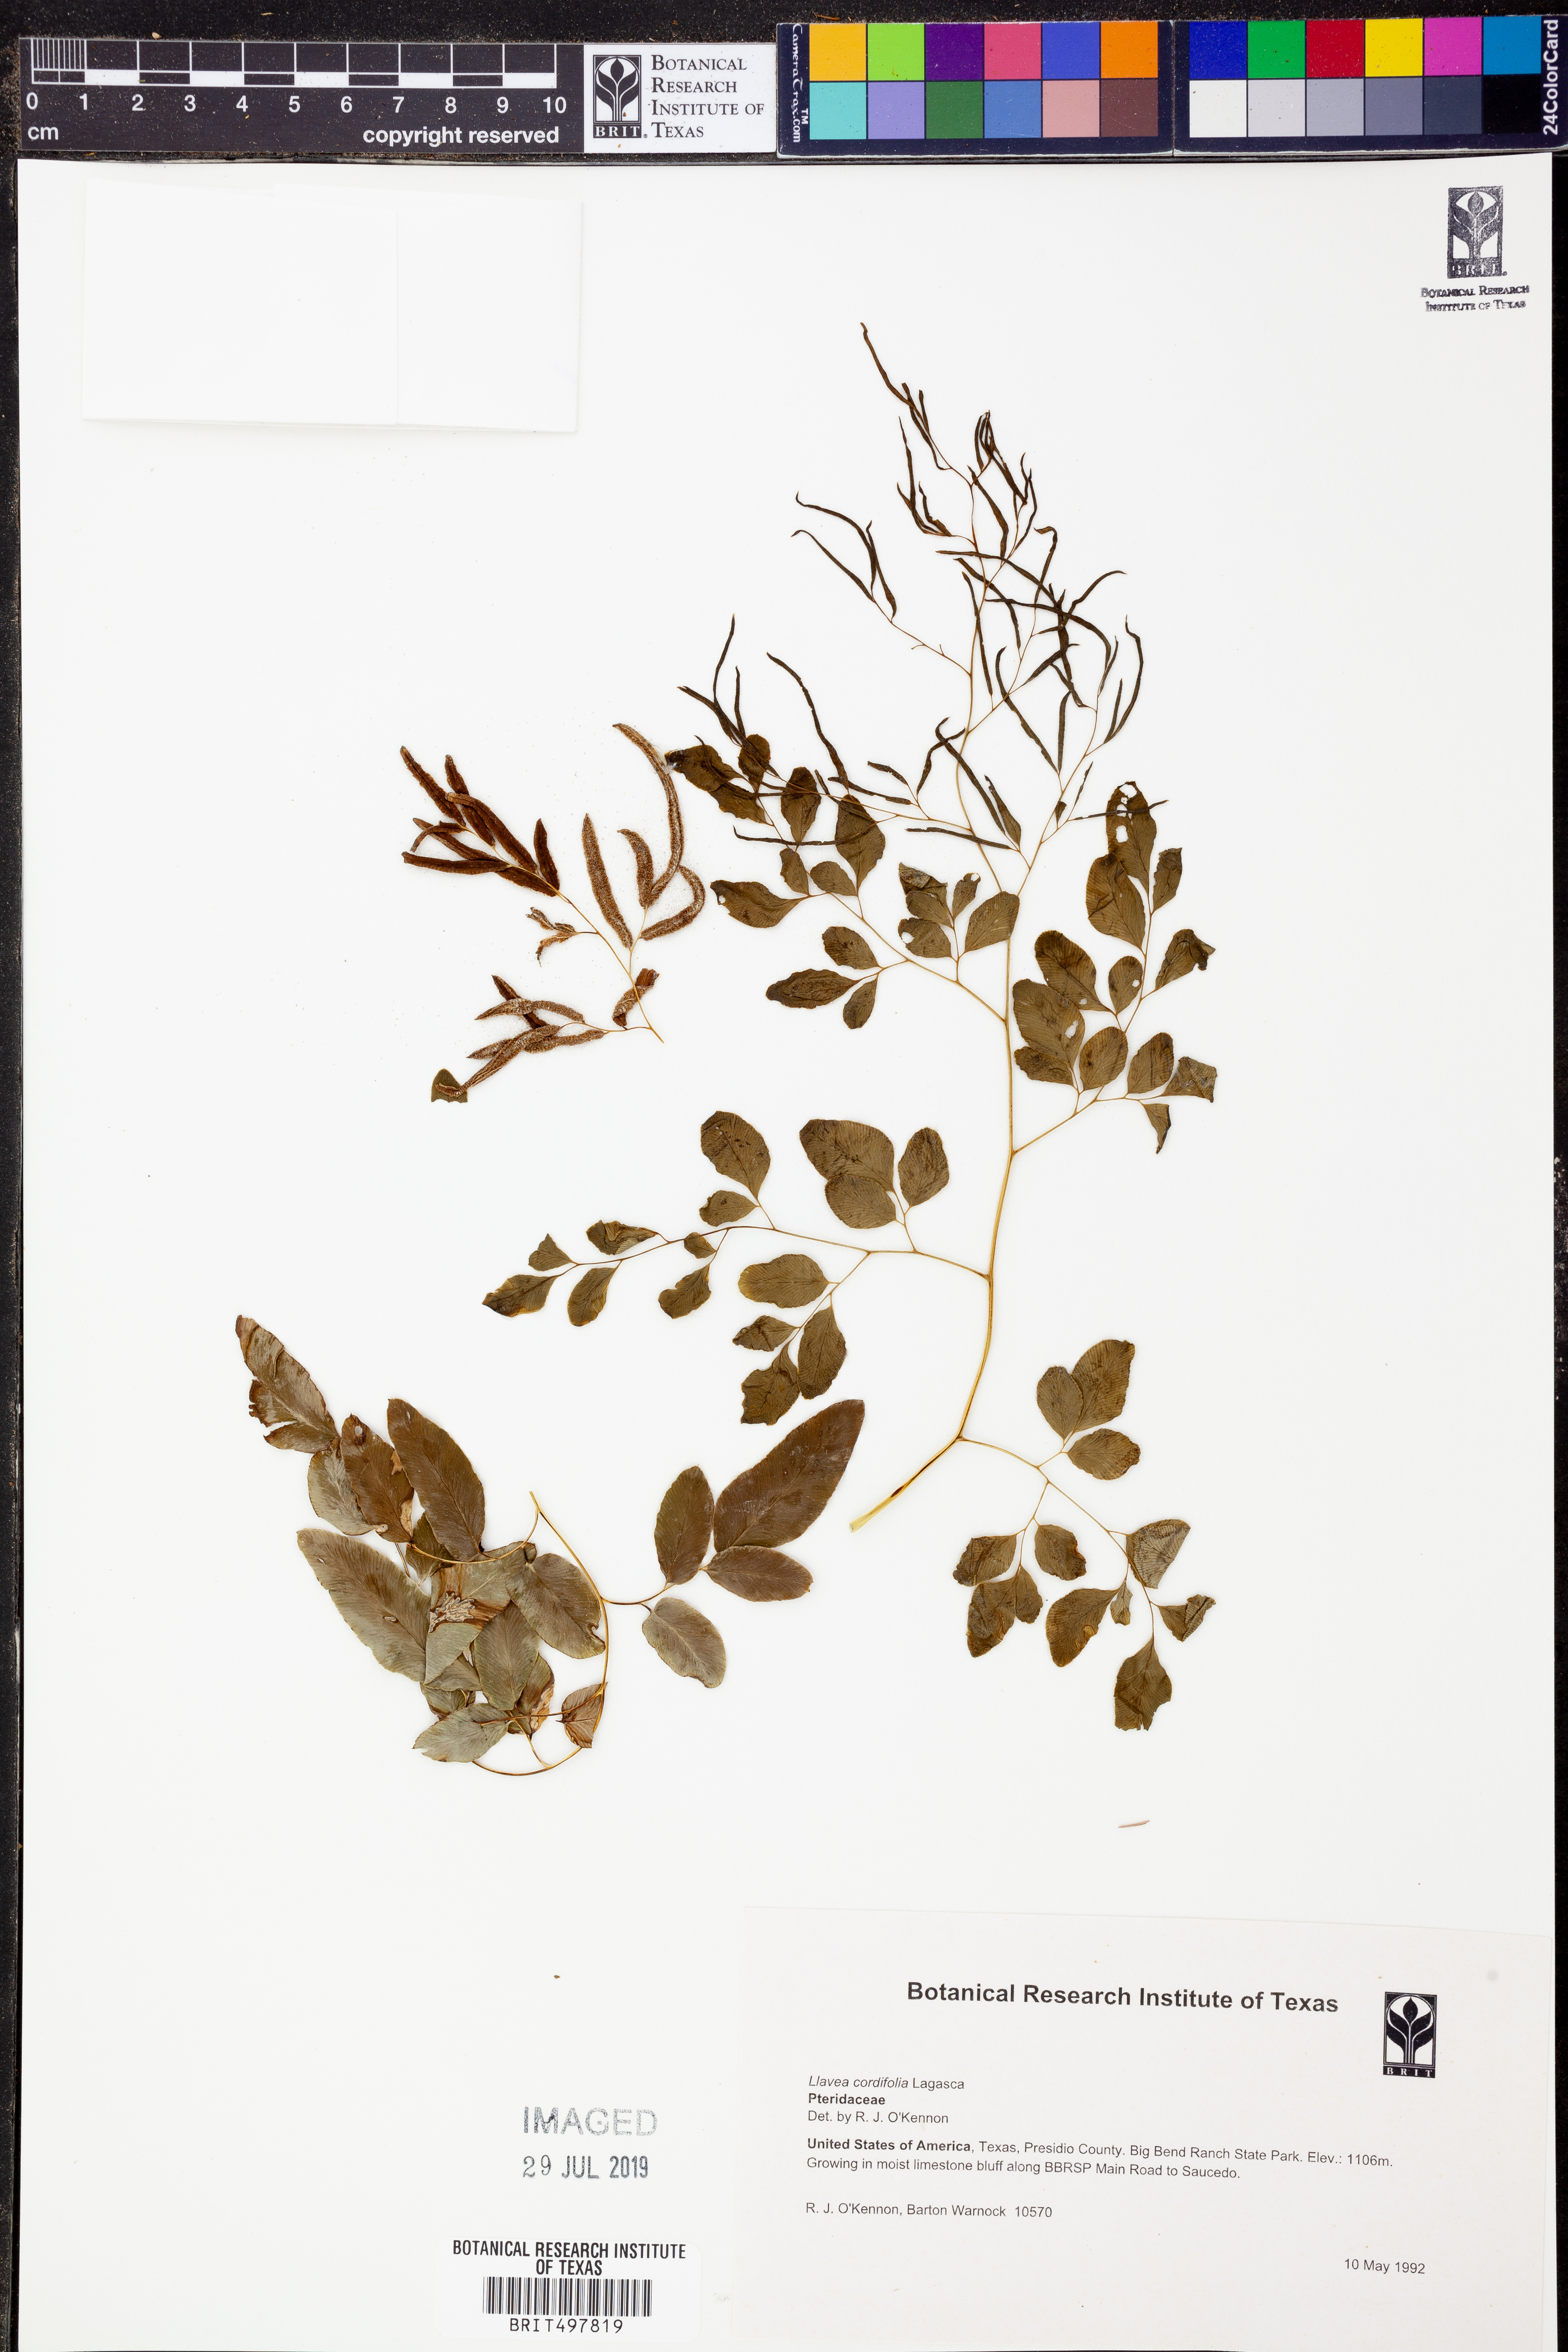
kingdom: Plantae
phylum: Tracheophyta
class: Polypodiopsida
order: Polypodiales
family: Pteridaceae
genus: Llavea
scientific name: Llavea cordifolia
